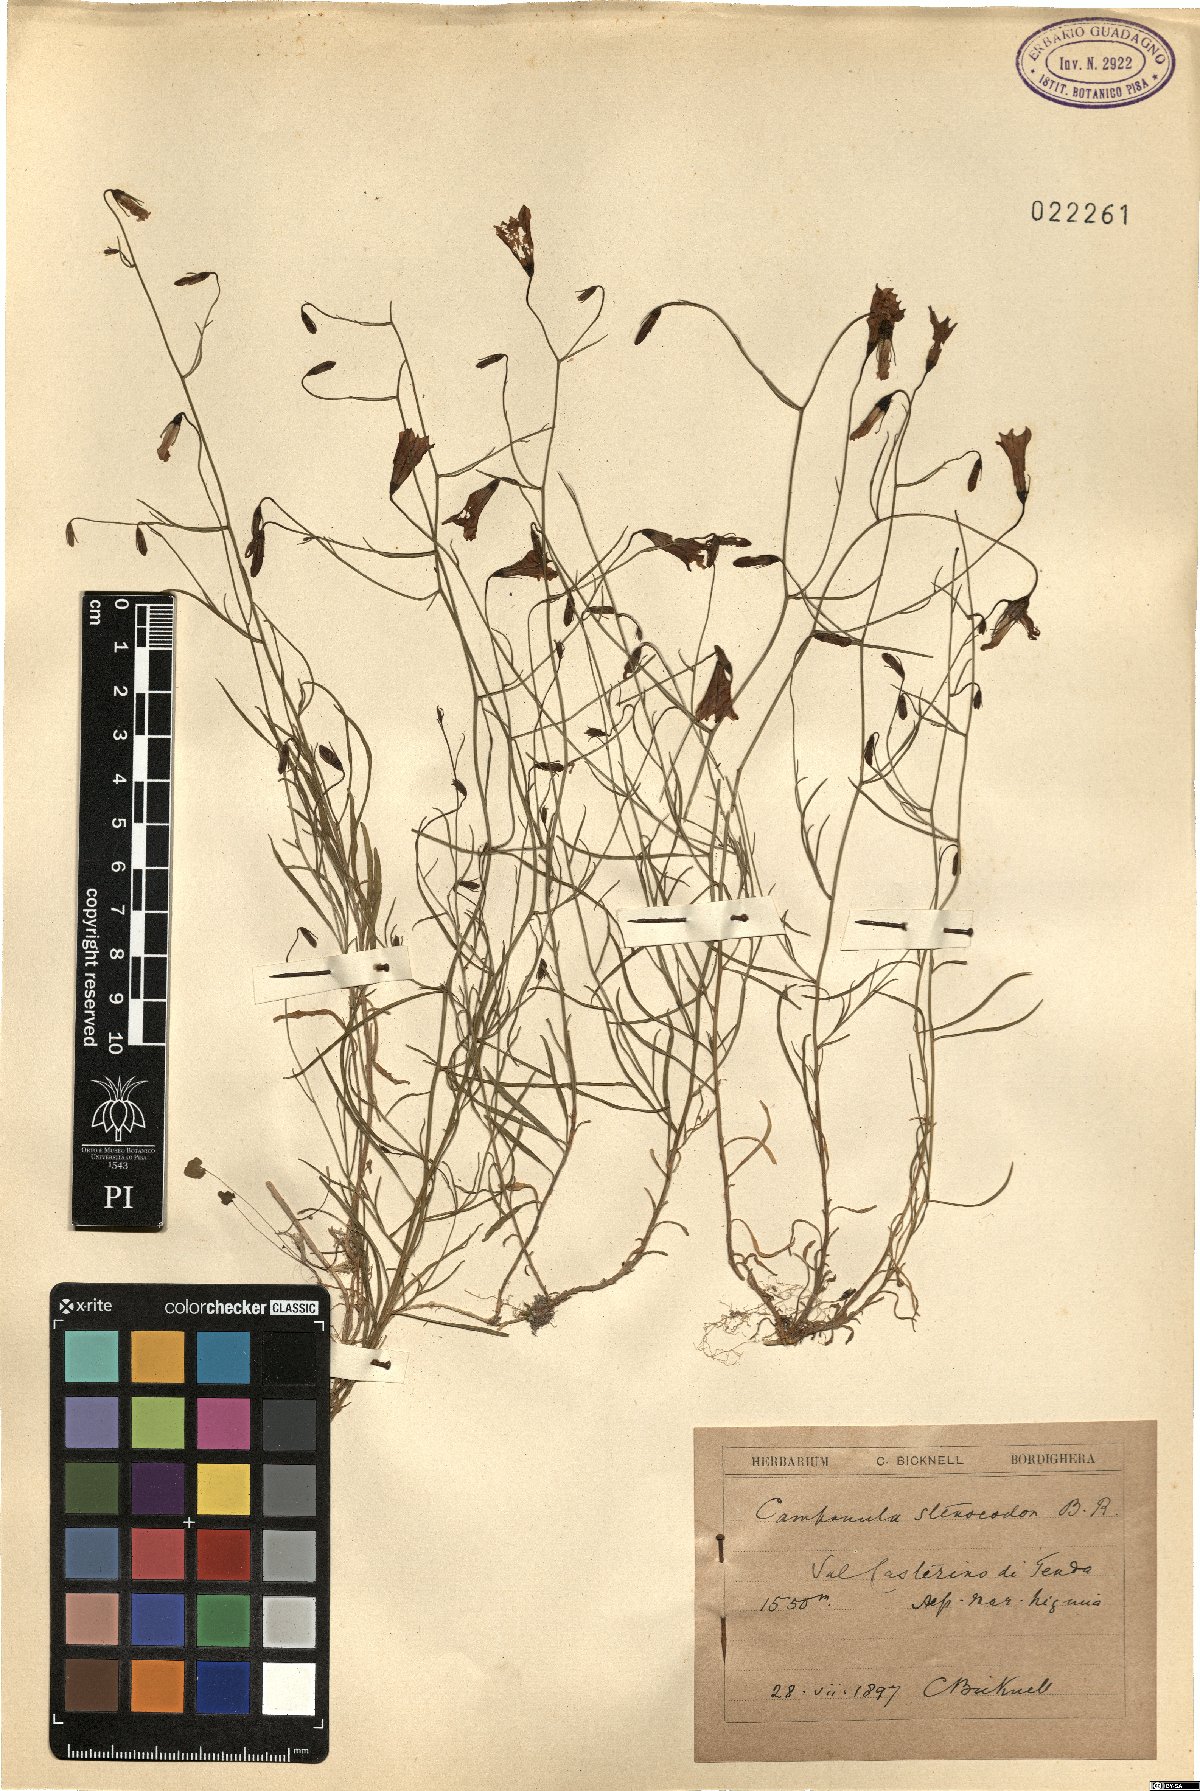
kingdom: Plantae
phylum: Tracheophyta
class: Magnoliopsida
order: Asterales
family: Campanulaceae
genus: Campanula
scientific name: Campanula stenocodon
